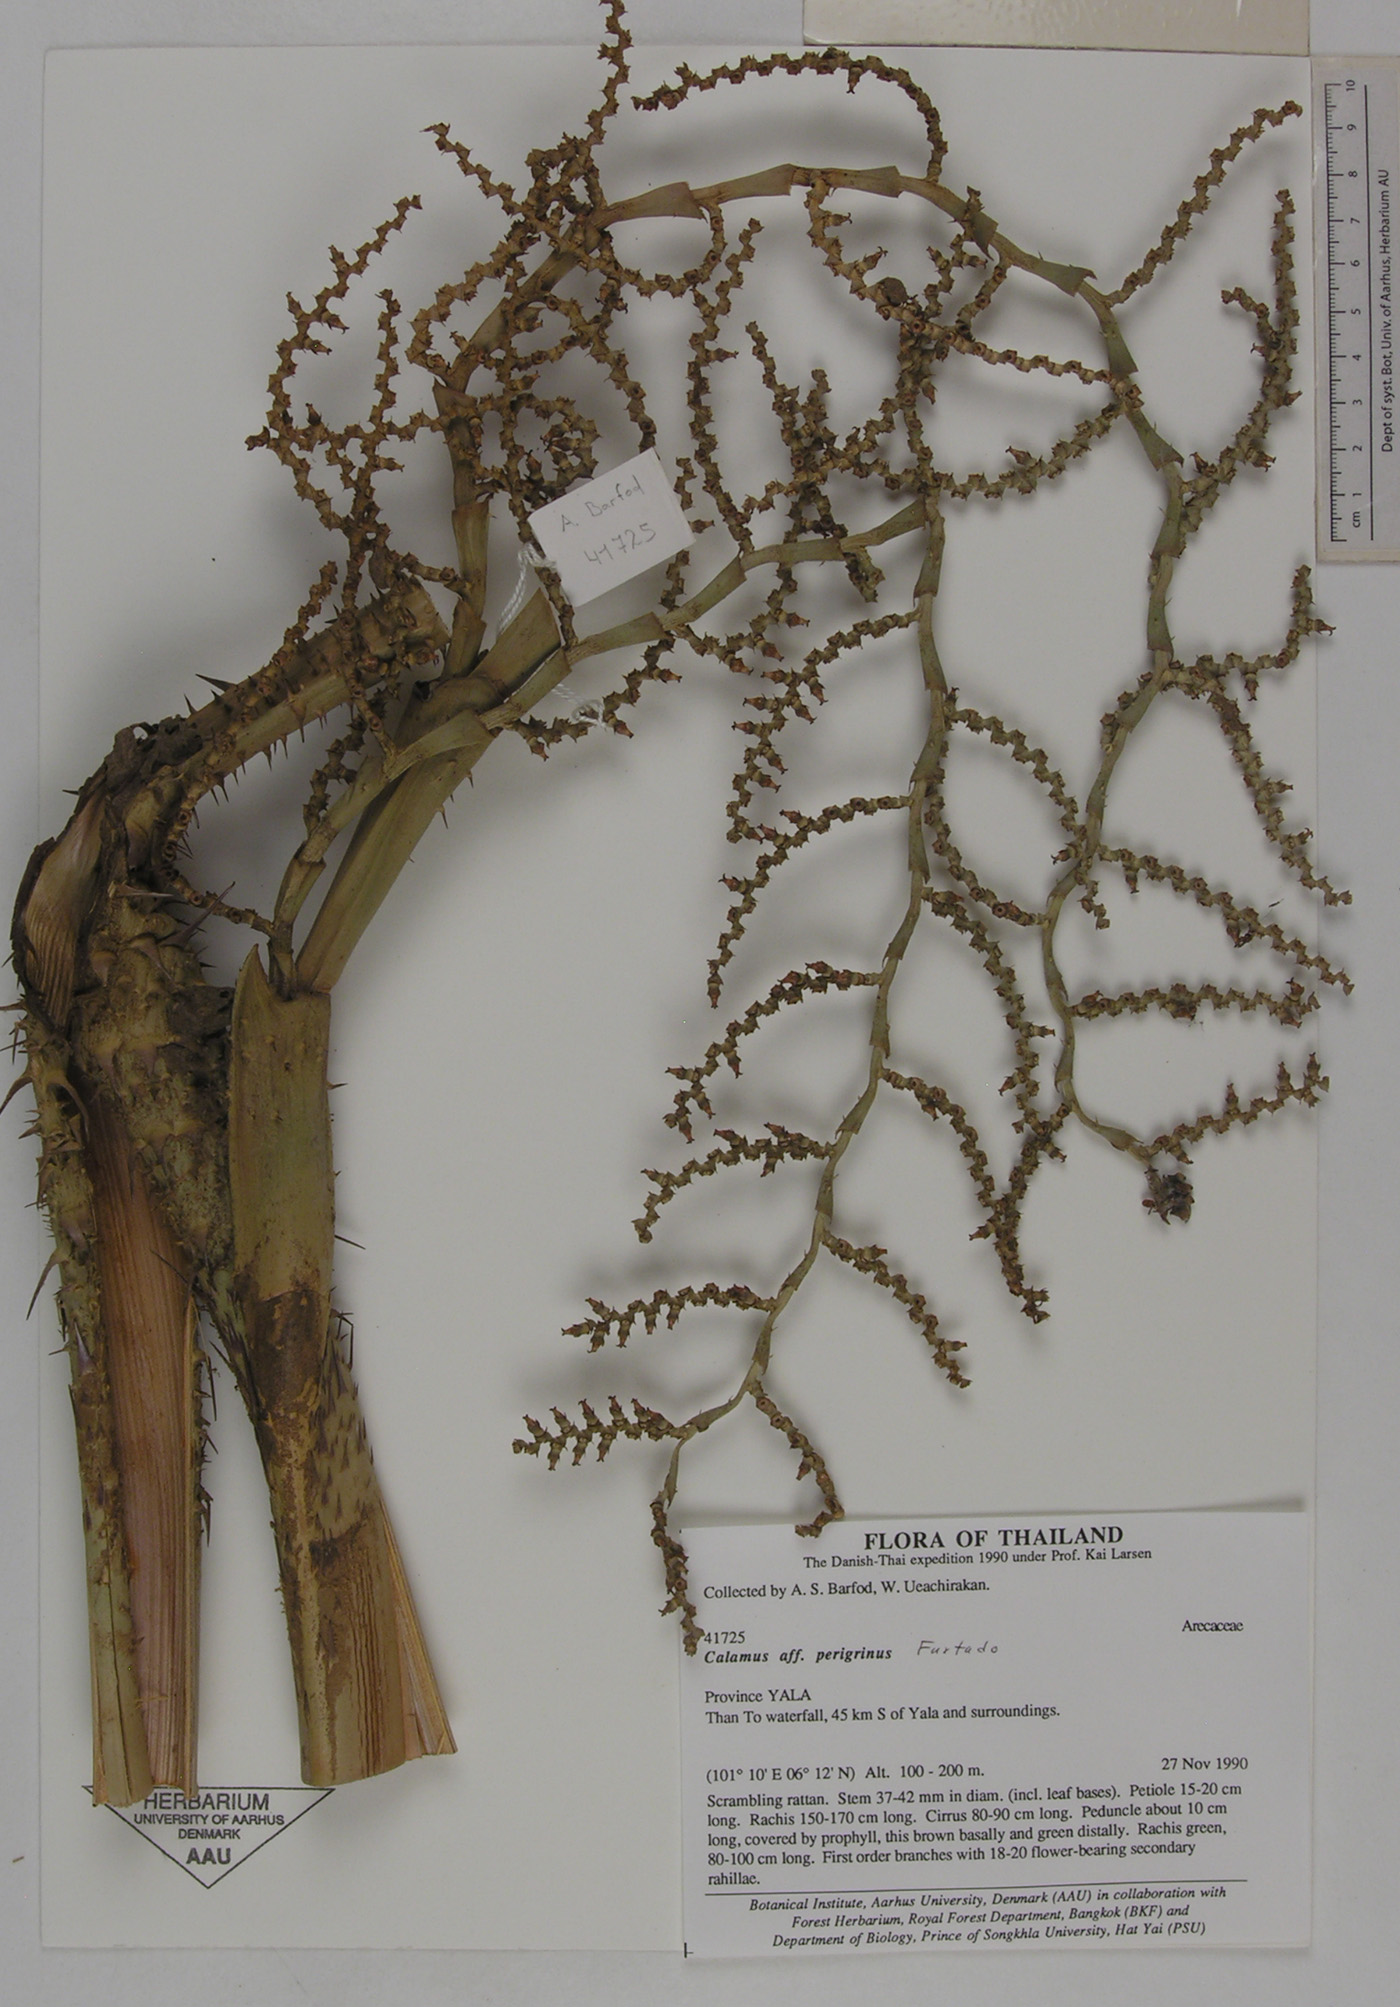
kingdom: Plantae
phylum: Tracheophyta
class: Liliopsida
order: Arecales
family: Arecaceae
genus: Calamus
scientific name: Calamus latifolius
